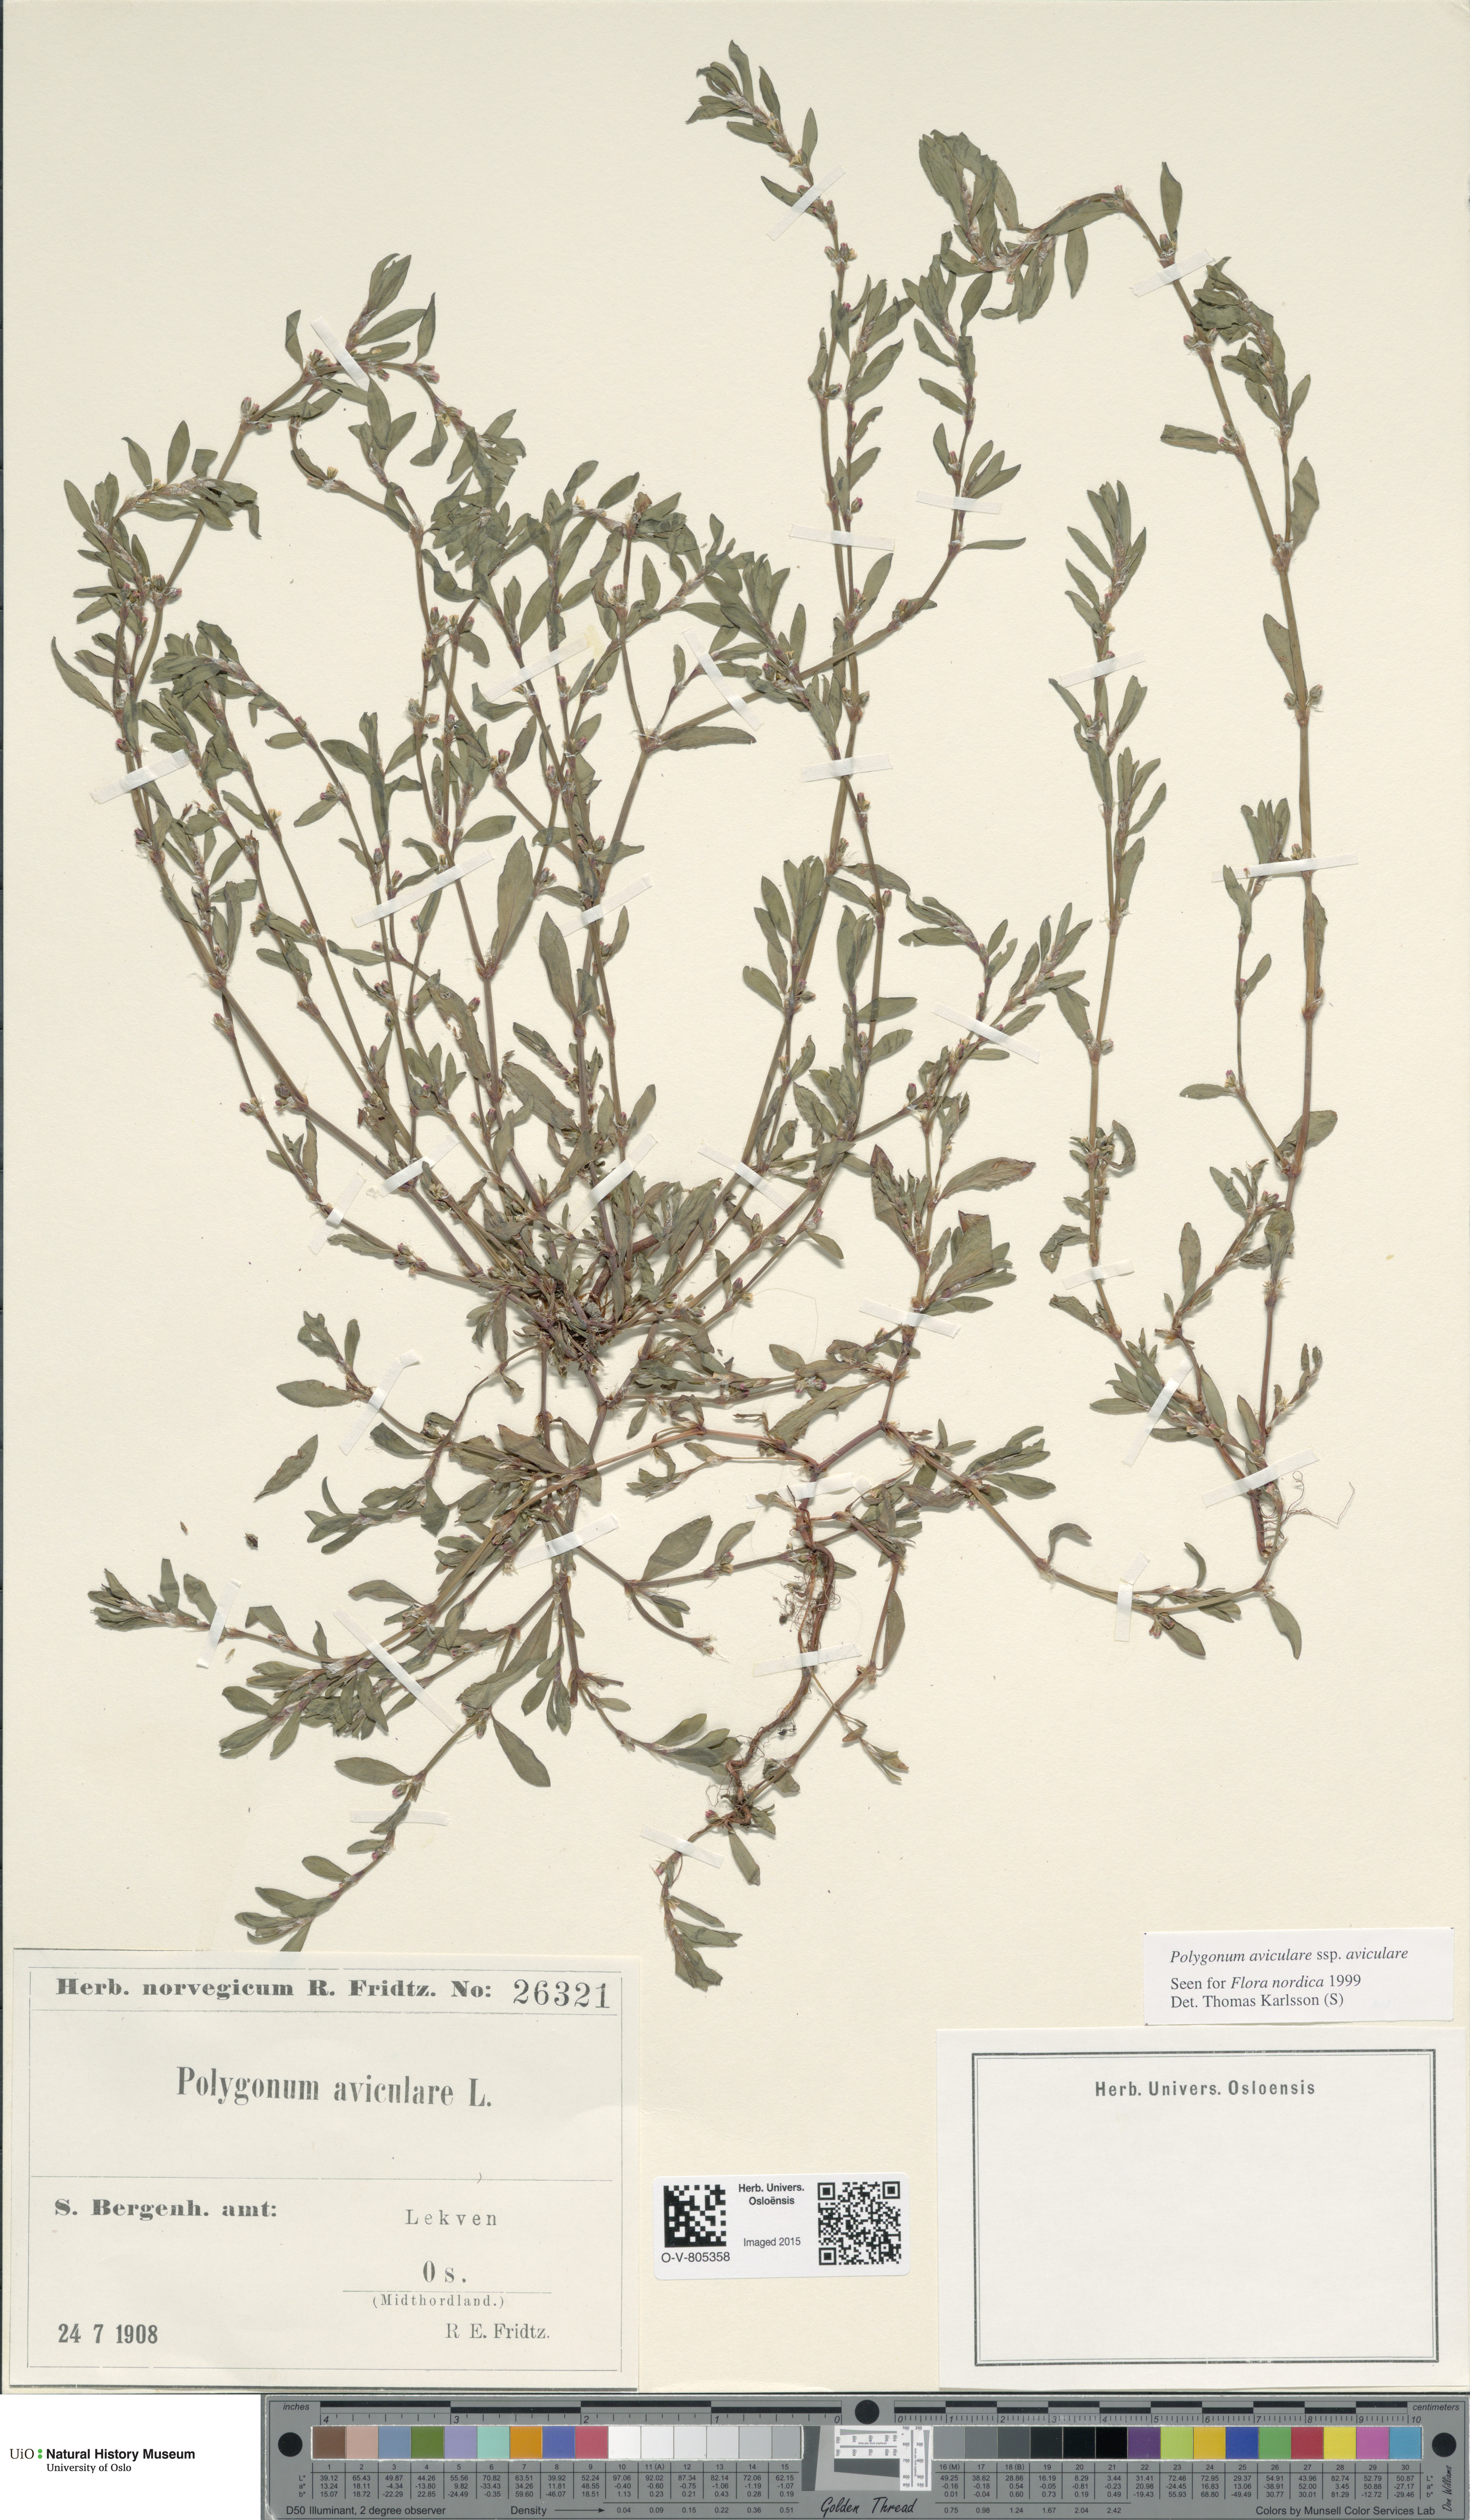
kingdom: Plantae
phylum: Tracheophyta
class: Magnoliopsida
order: Caryophyllales
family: Polygonaceae
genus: Polygonum
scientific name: Polygonum aviculare
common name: Prostrate knotweed
